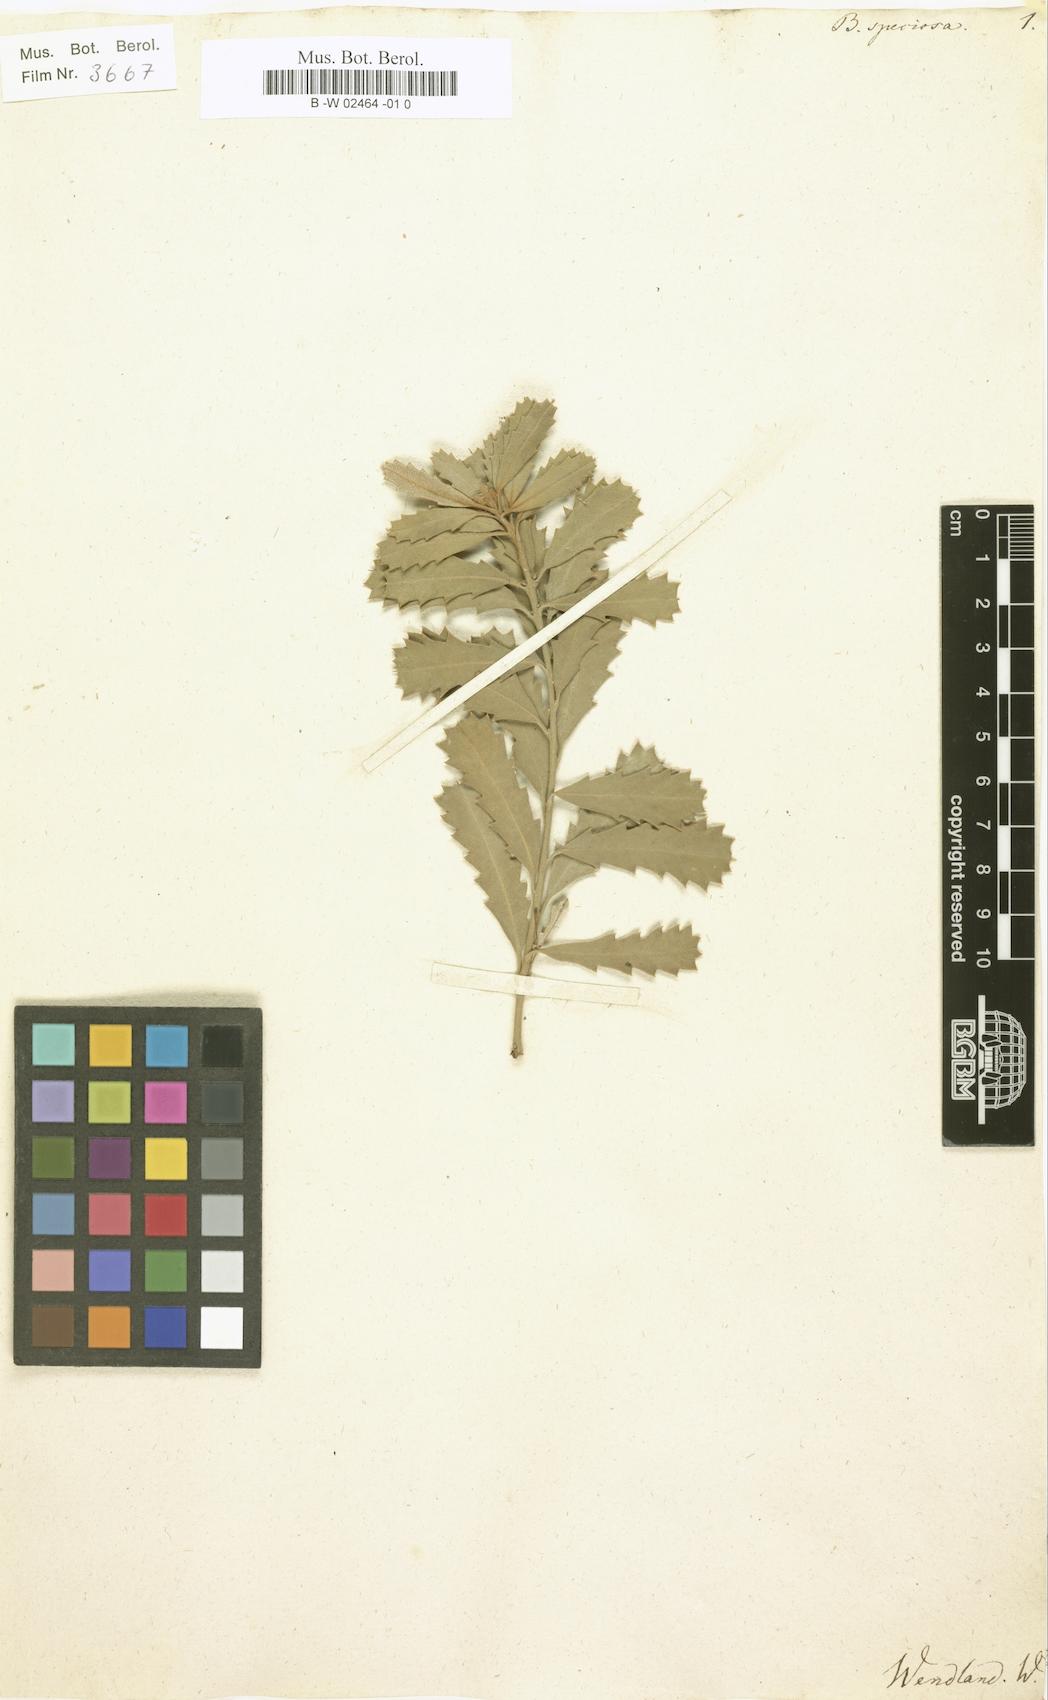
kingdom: Plantae
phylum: Tracheophyta
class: Magnoliopsida
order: Proteales
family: Proteaceae
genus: Banksia
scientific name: Banksia speciosa
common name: Showy banksia
